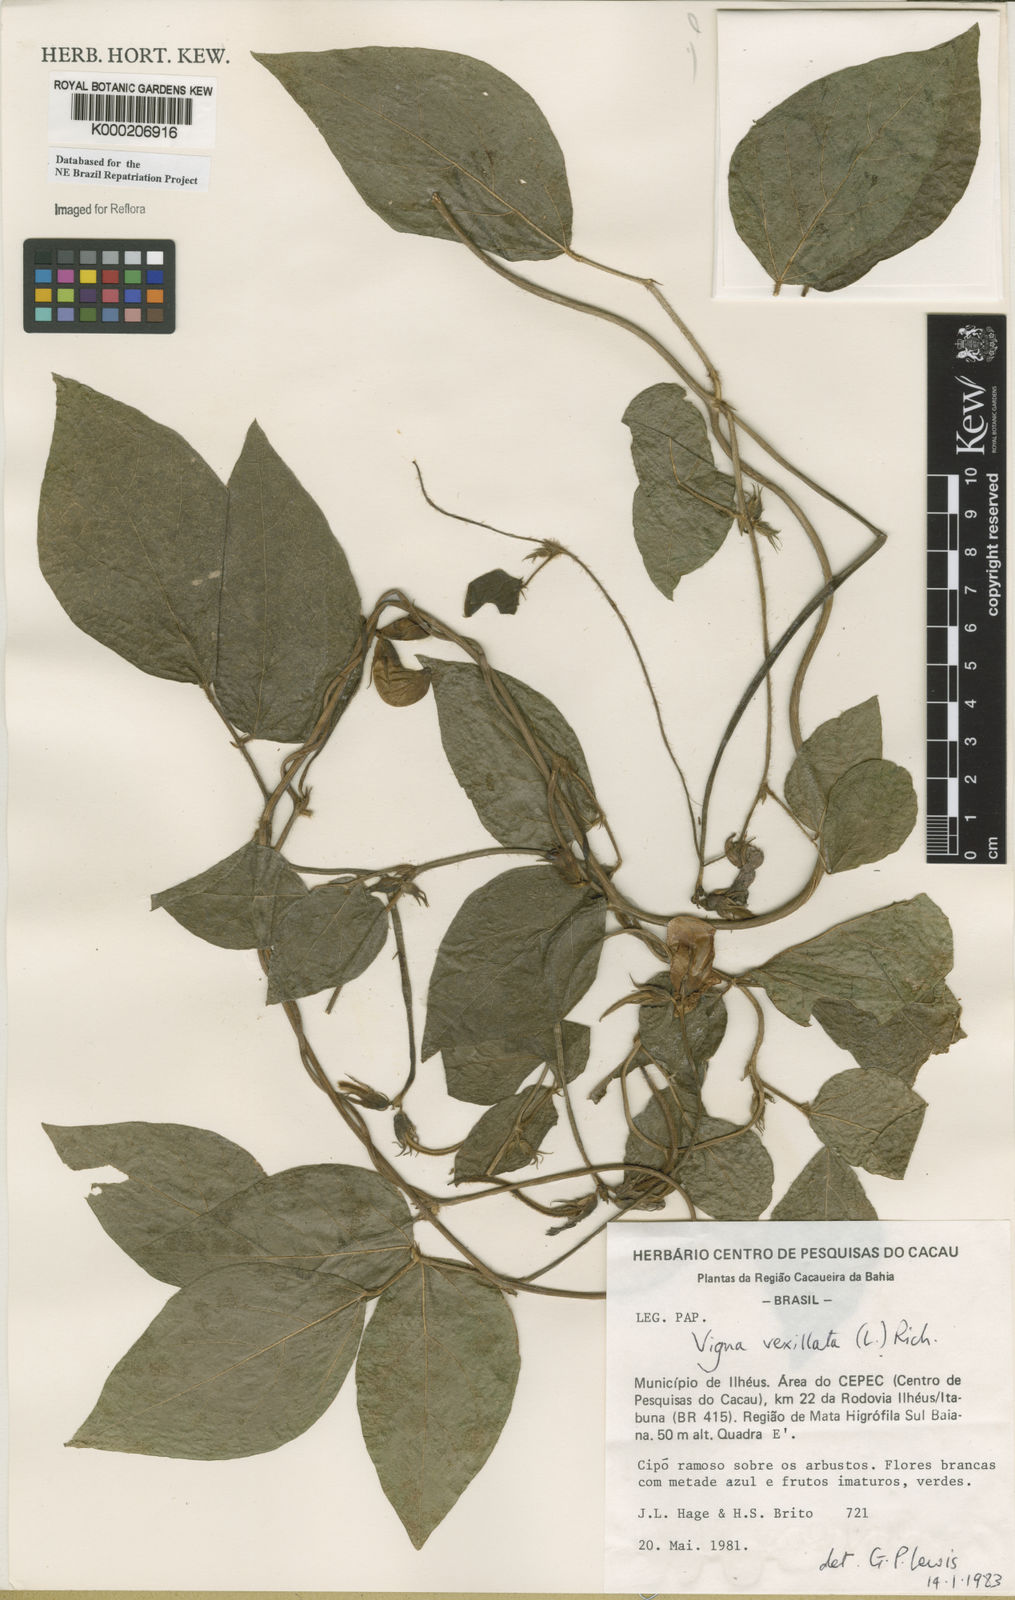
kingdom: Plantae
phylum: Tracheophyta
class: Magnoliopsida
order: Fabales
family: Fabaceae
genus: Vigna
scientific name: Vigna vexillata
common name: Zombi pea
